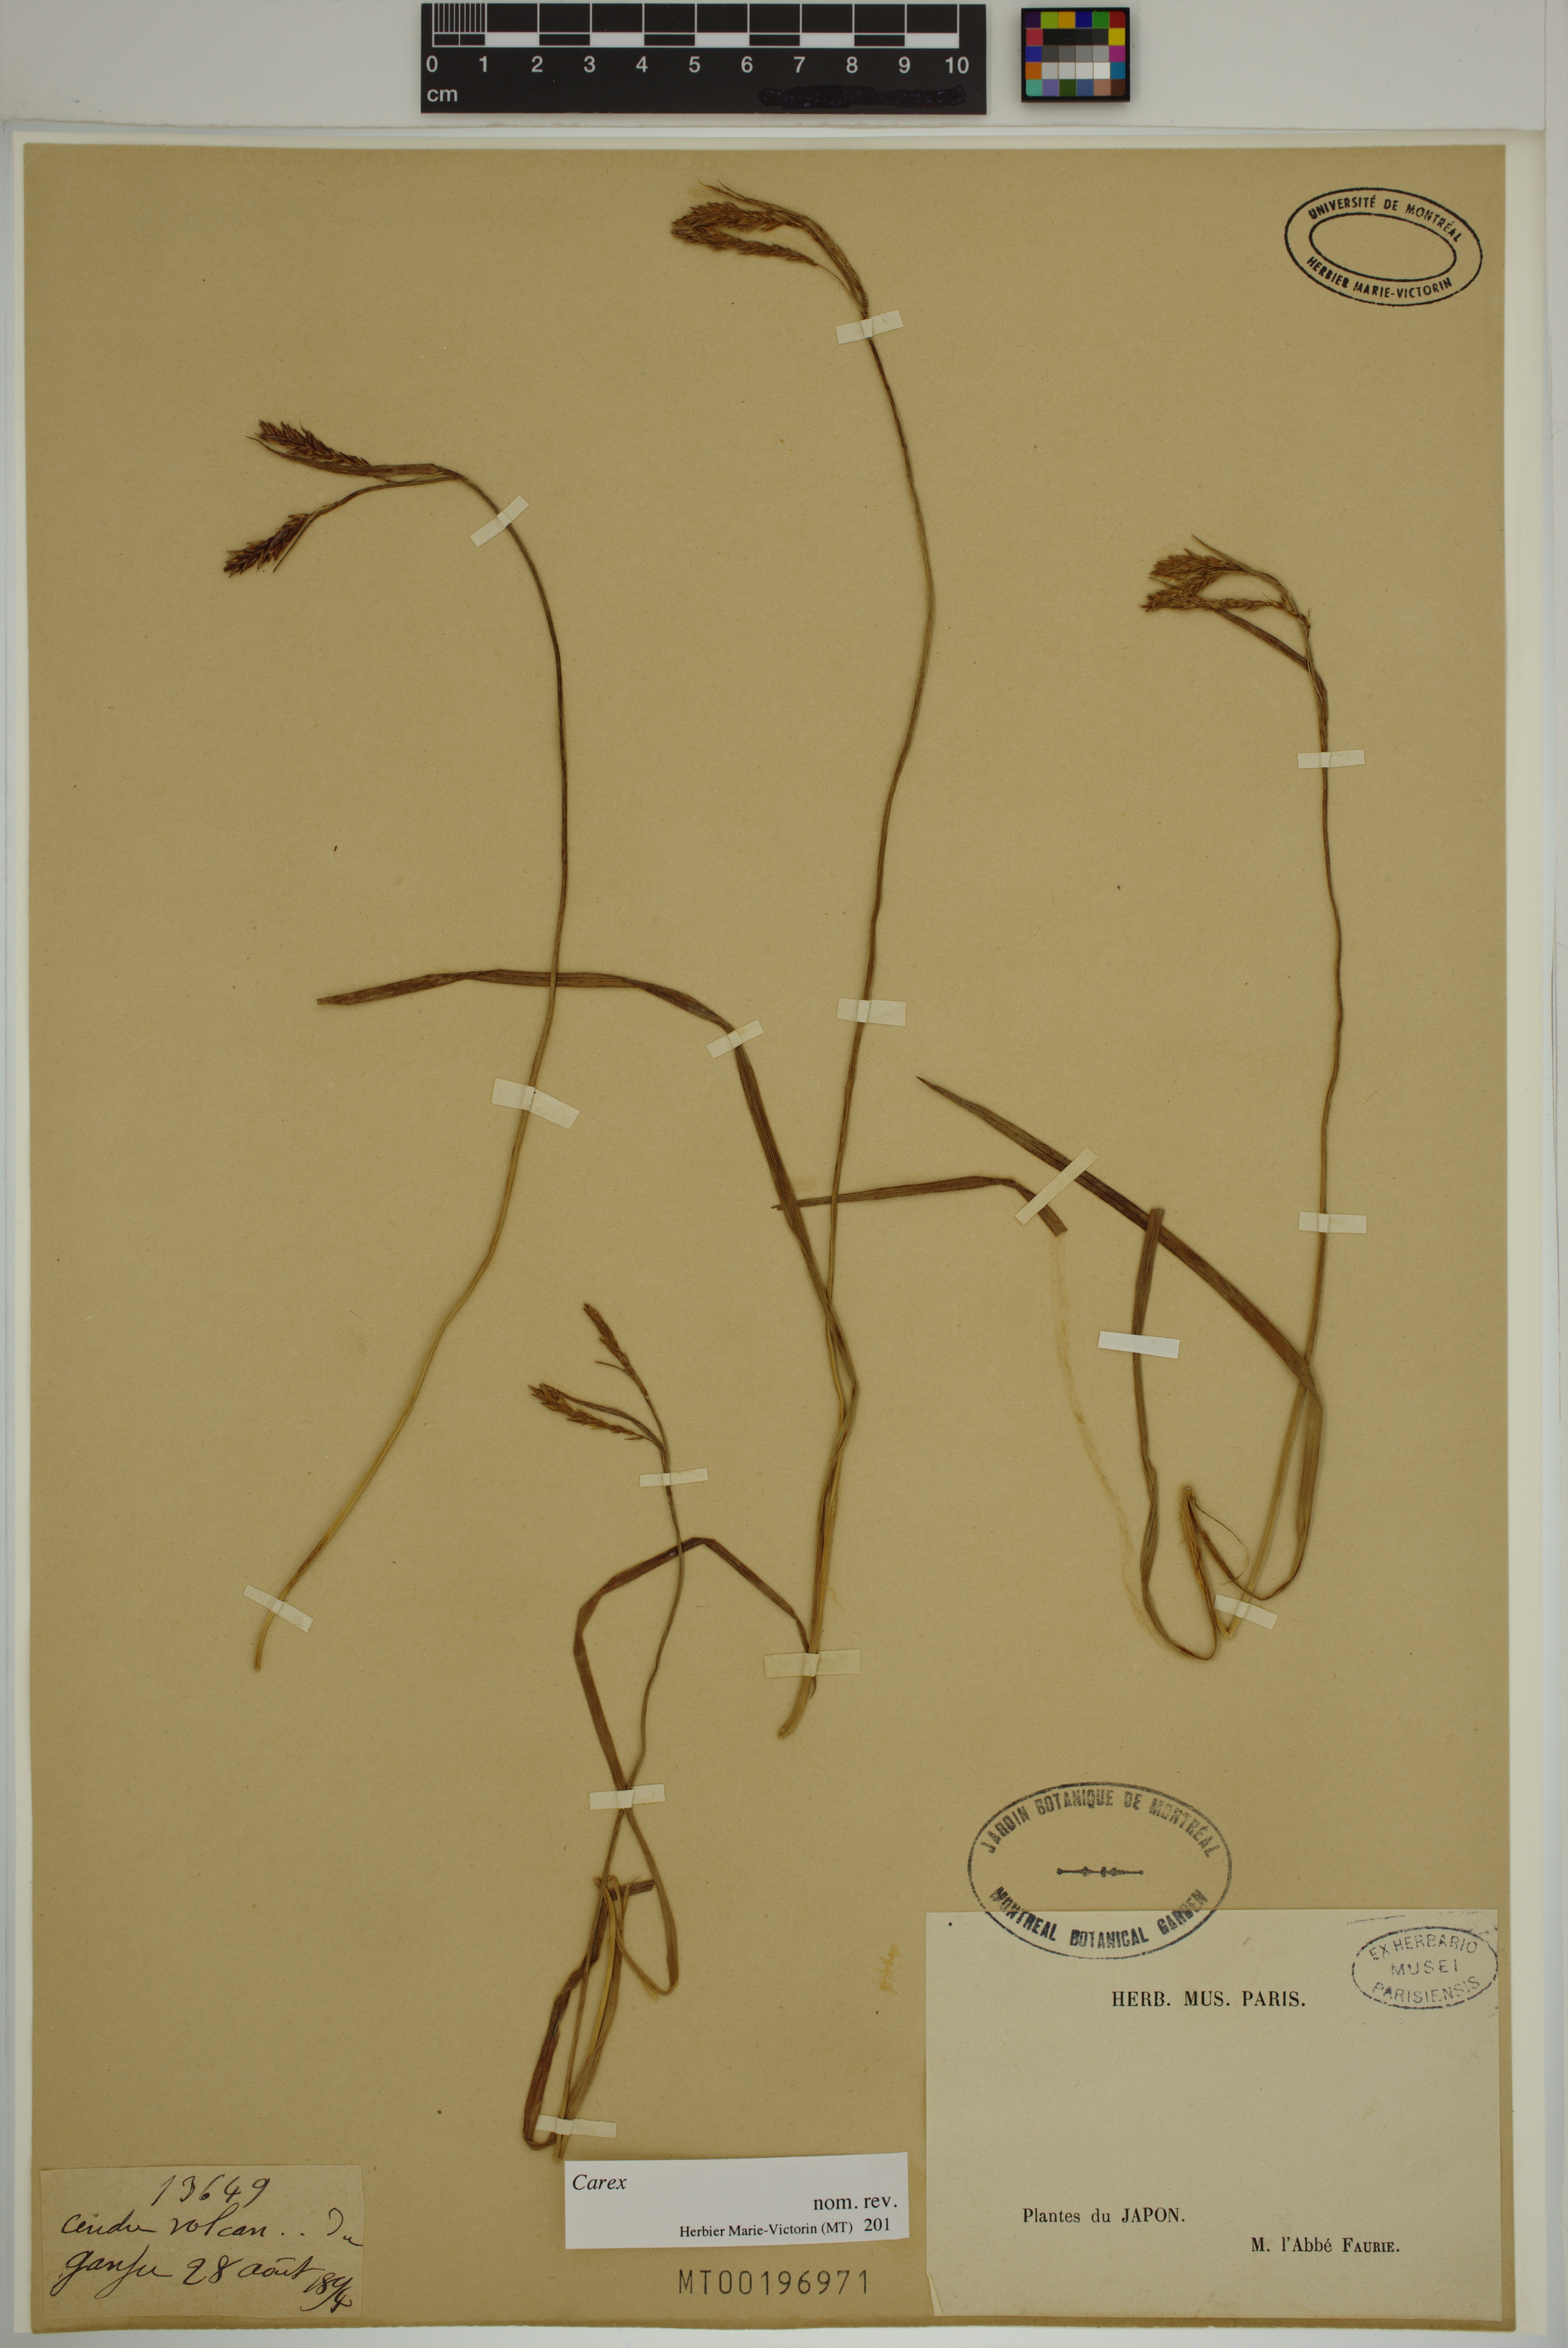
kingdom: Plantae
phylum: Tracheophyta
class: Liliopsida
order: Poales
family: Cyperaceae
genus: Carex
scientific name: Carex
